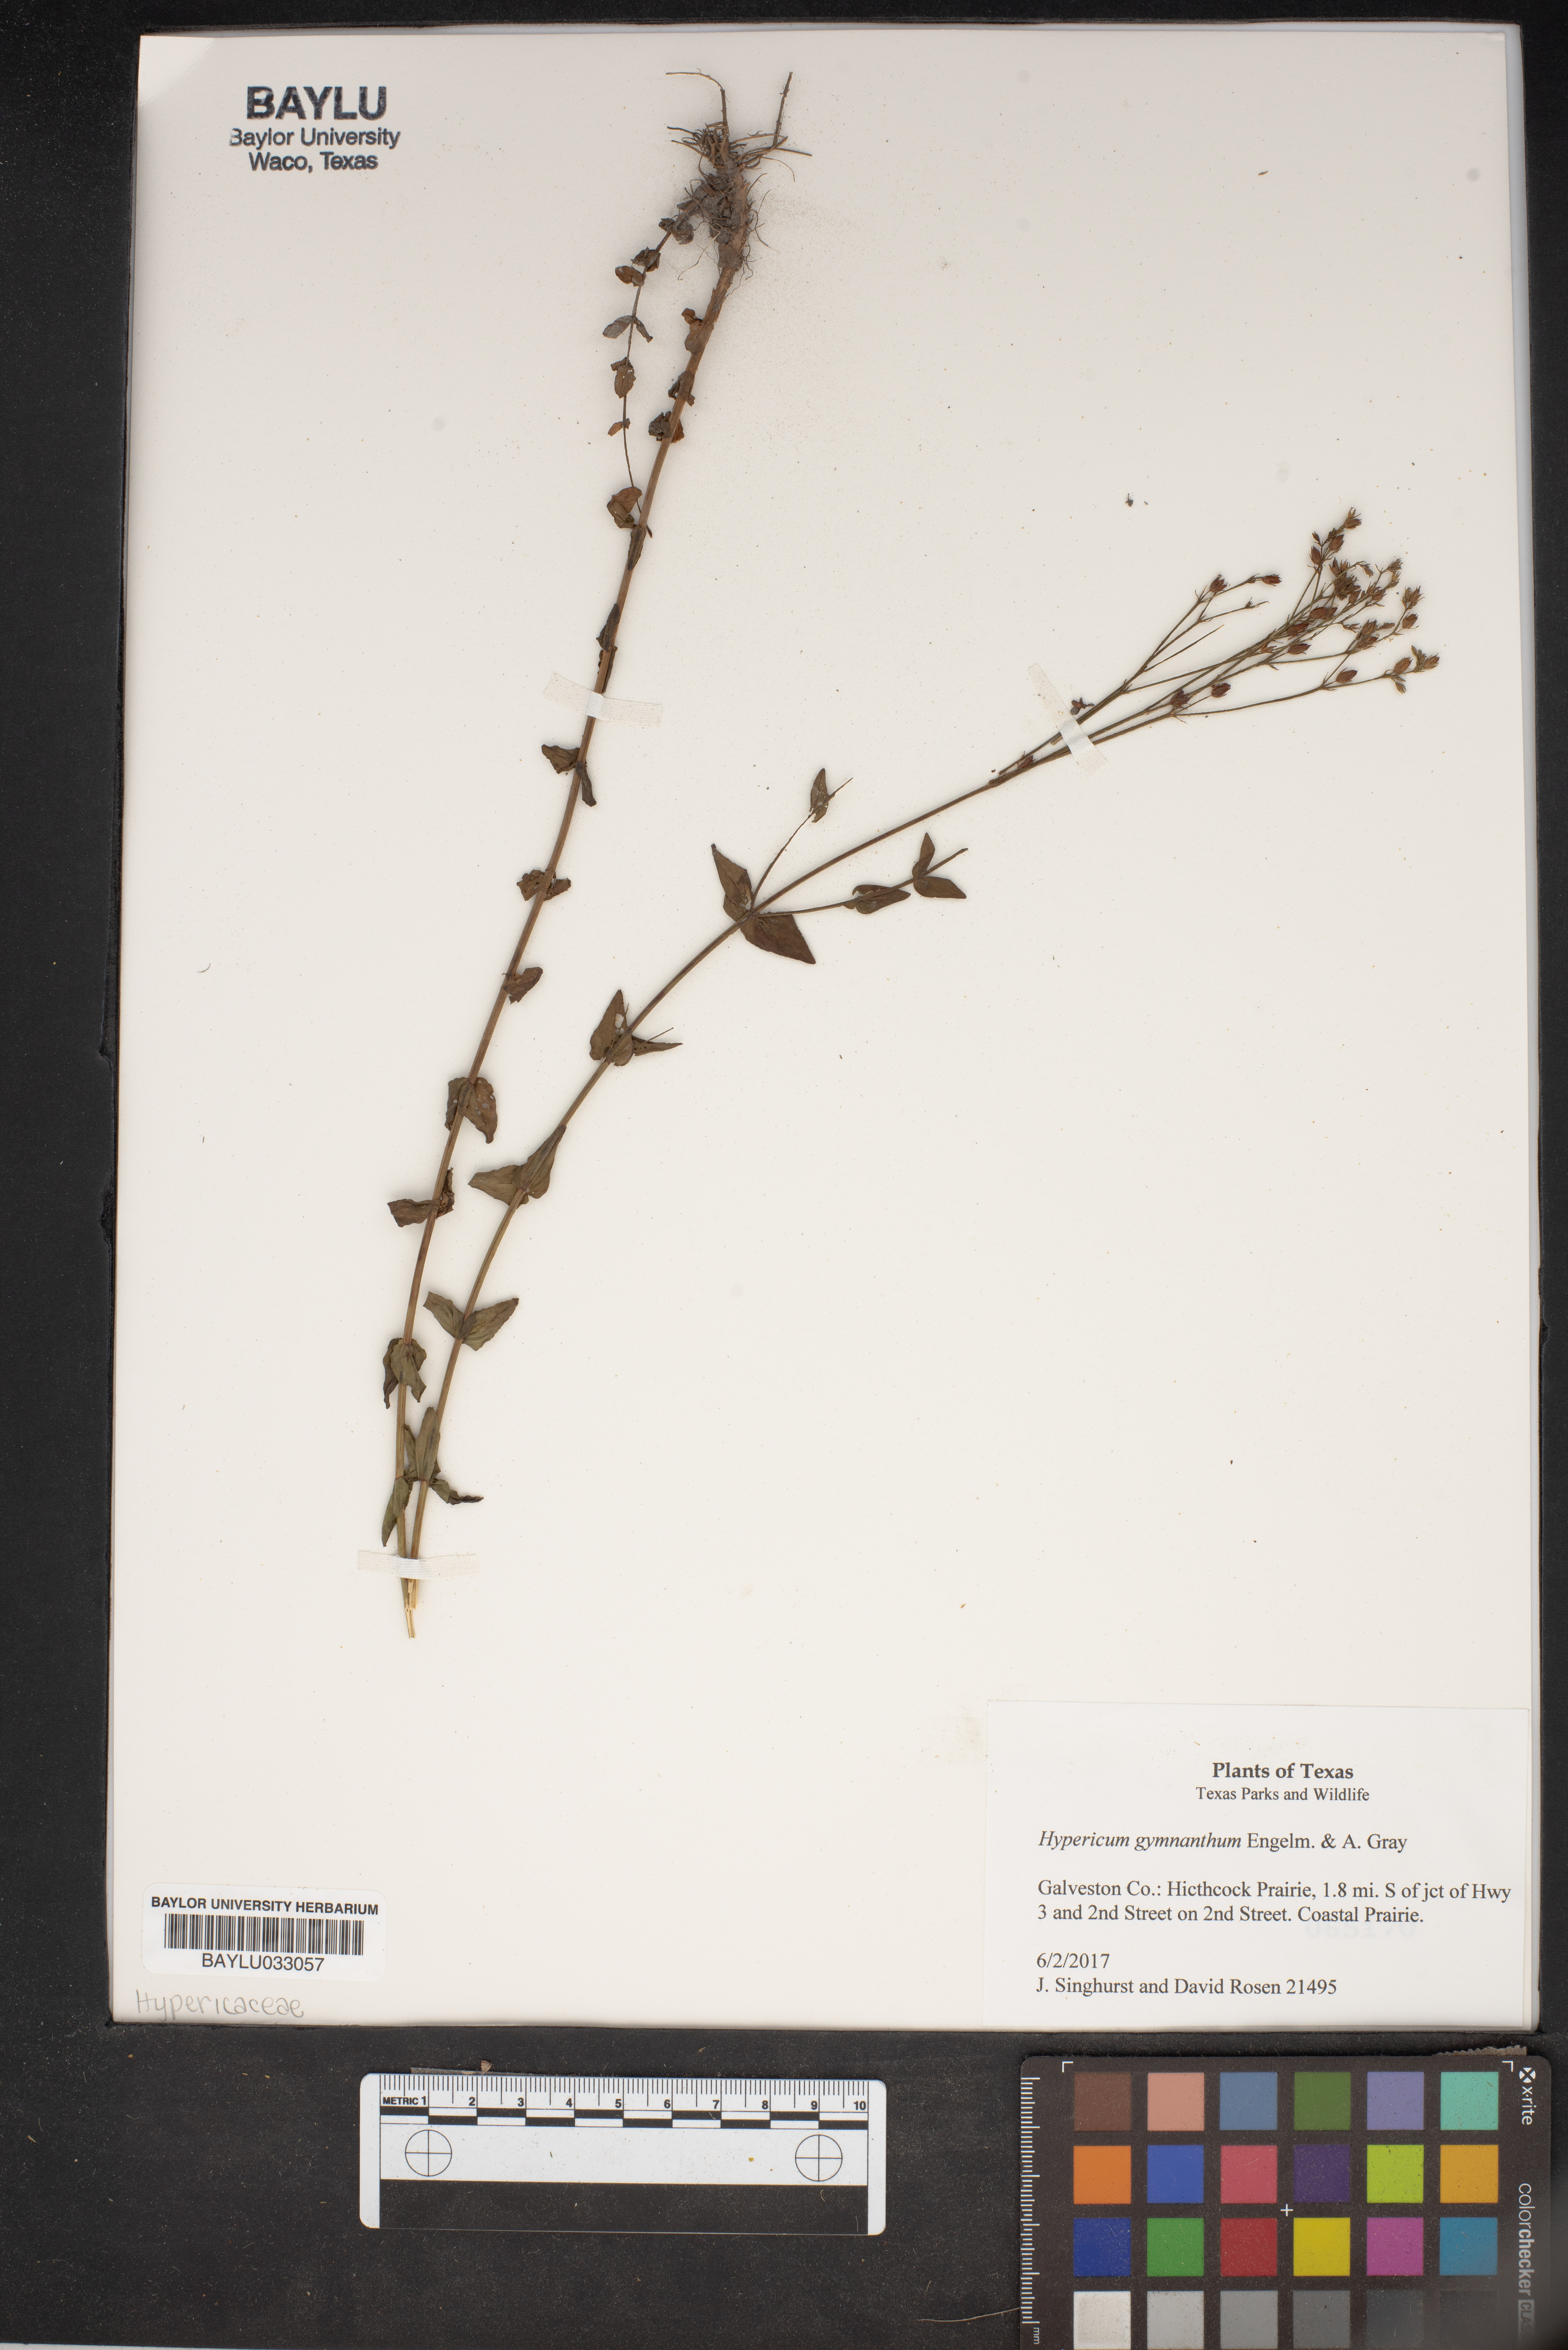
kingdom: Plantae
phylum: Tracheophyta
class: Magnoliopsida
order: Malpighiales
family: Hypericaceae
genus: Hypericum
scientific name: Hypericum gymnanthum
